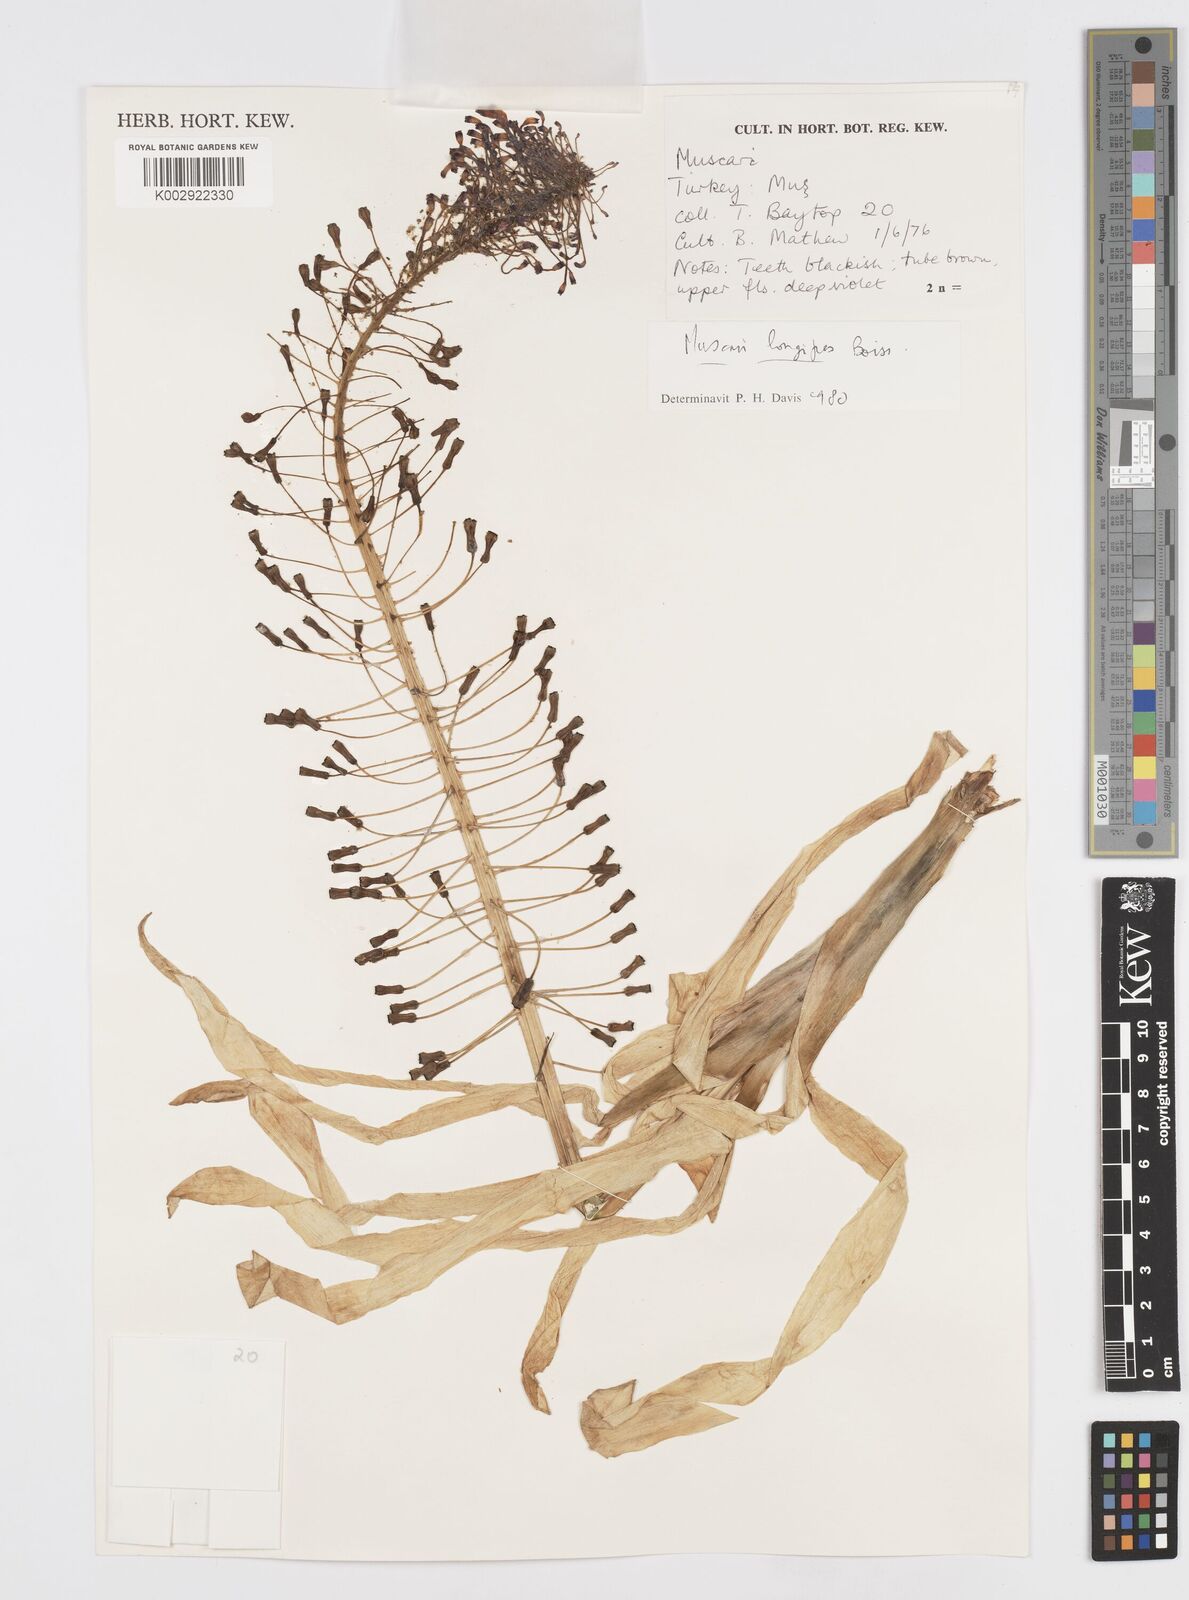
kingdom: Plantae
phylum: Tracheophyta
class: Liliopsida
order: Asparagales
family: Asparagaceae
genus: Muscari
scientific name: Muscari longipes
